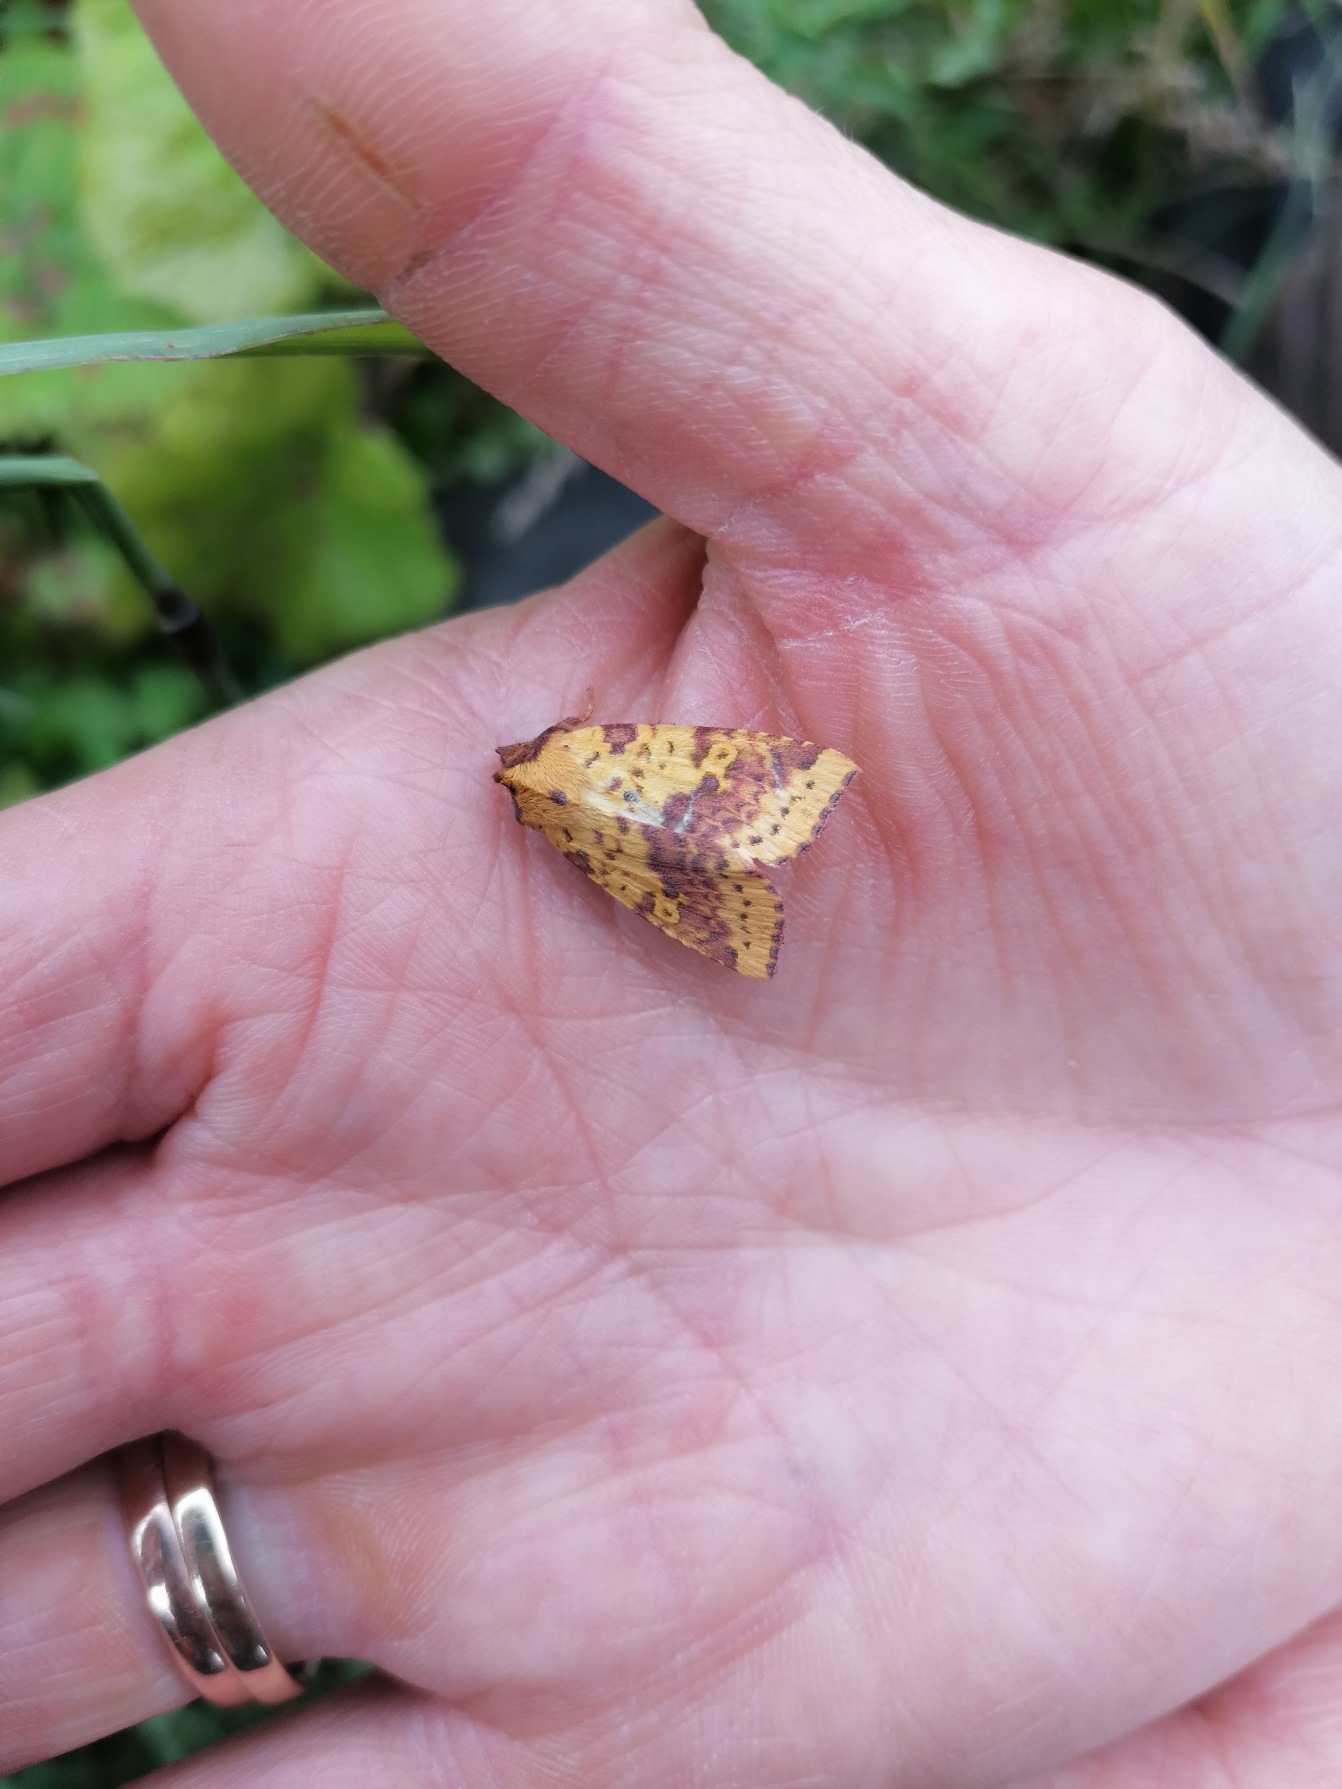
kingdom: Animalia
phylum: Arthropoda
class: Insecta
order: Lepidoptera
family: Noctuidae
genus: Xanthia
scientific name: Xanthia togata
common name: Toga-septemberugle
